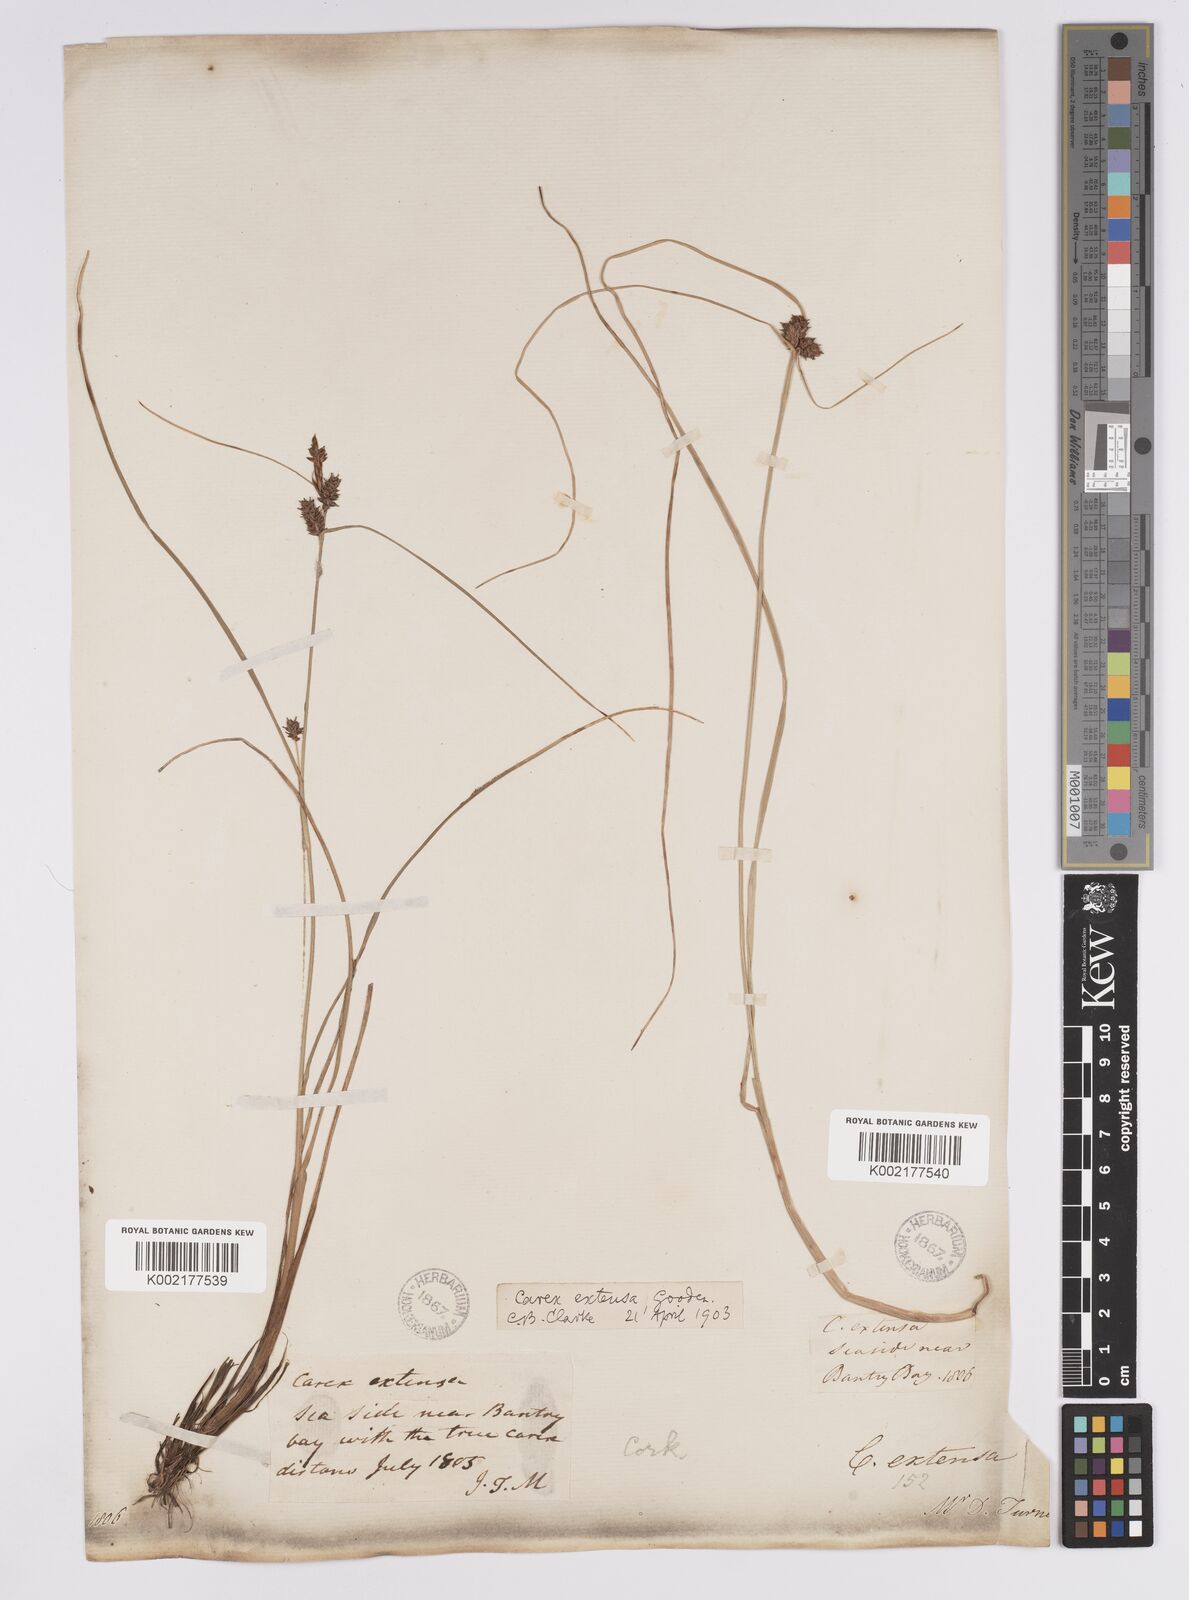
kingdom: Plantae
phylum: Tracheophyta
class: Liliopsida
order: Poales
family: Cyperaceae
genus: Carex
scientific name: Carex extensa
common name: Long-bracted sedge
